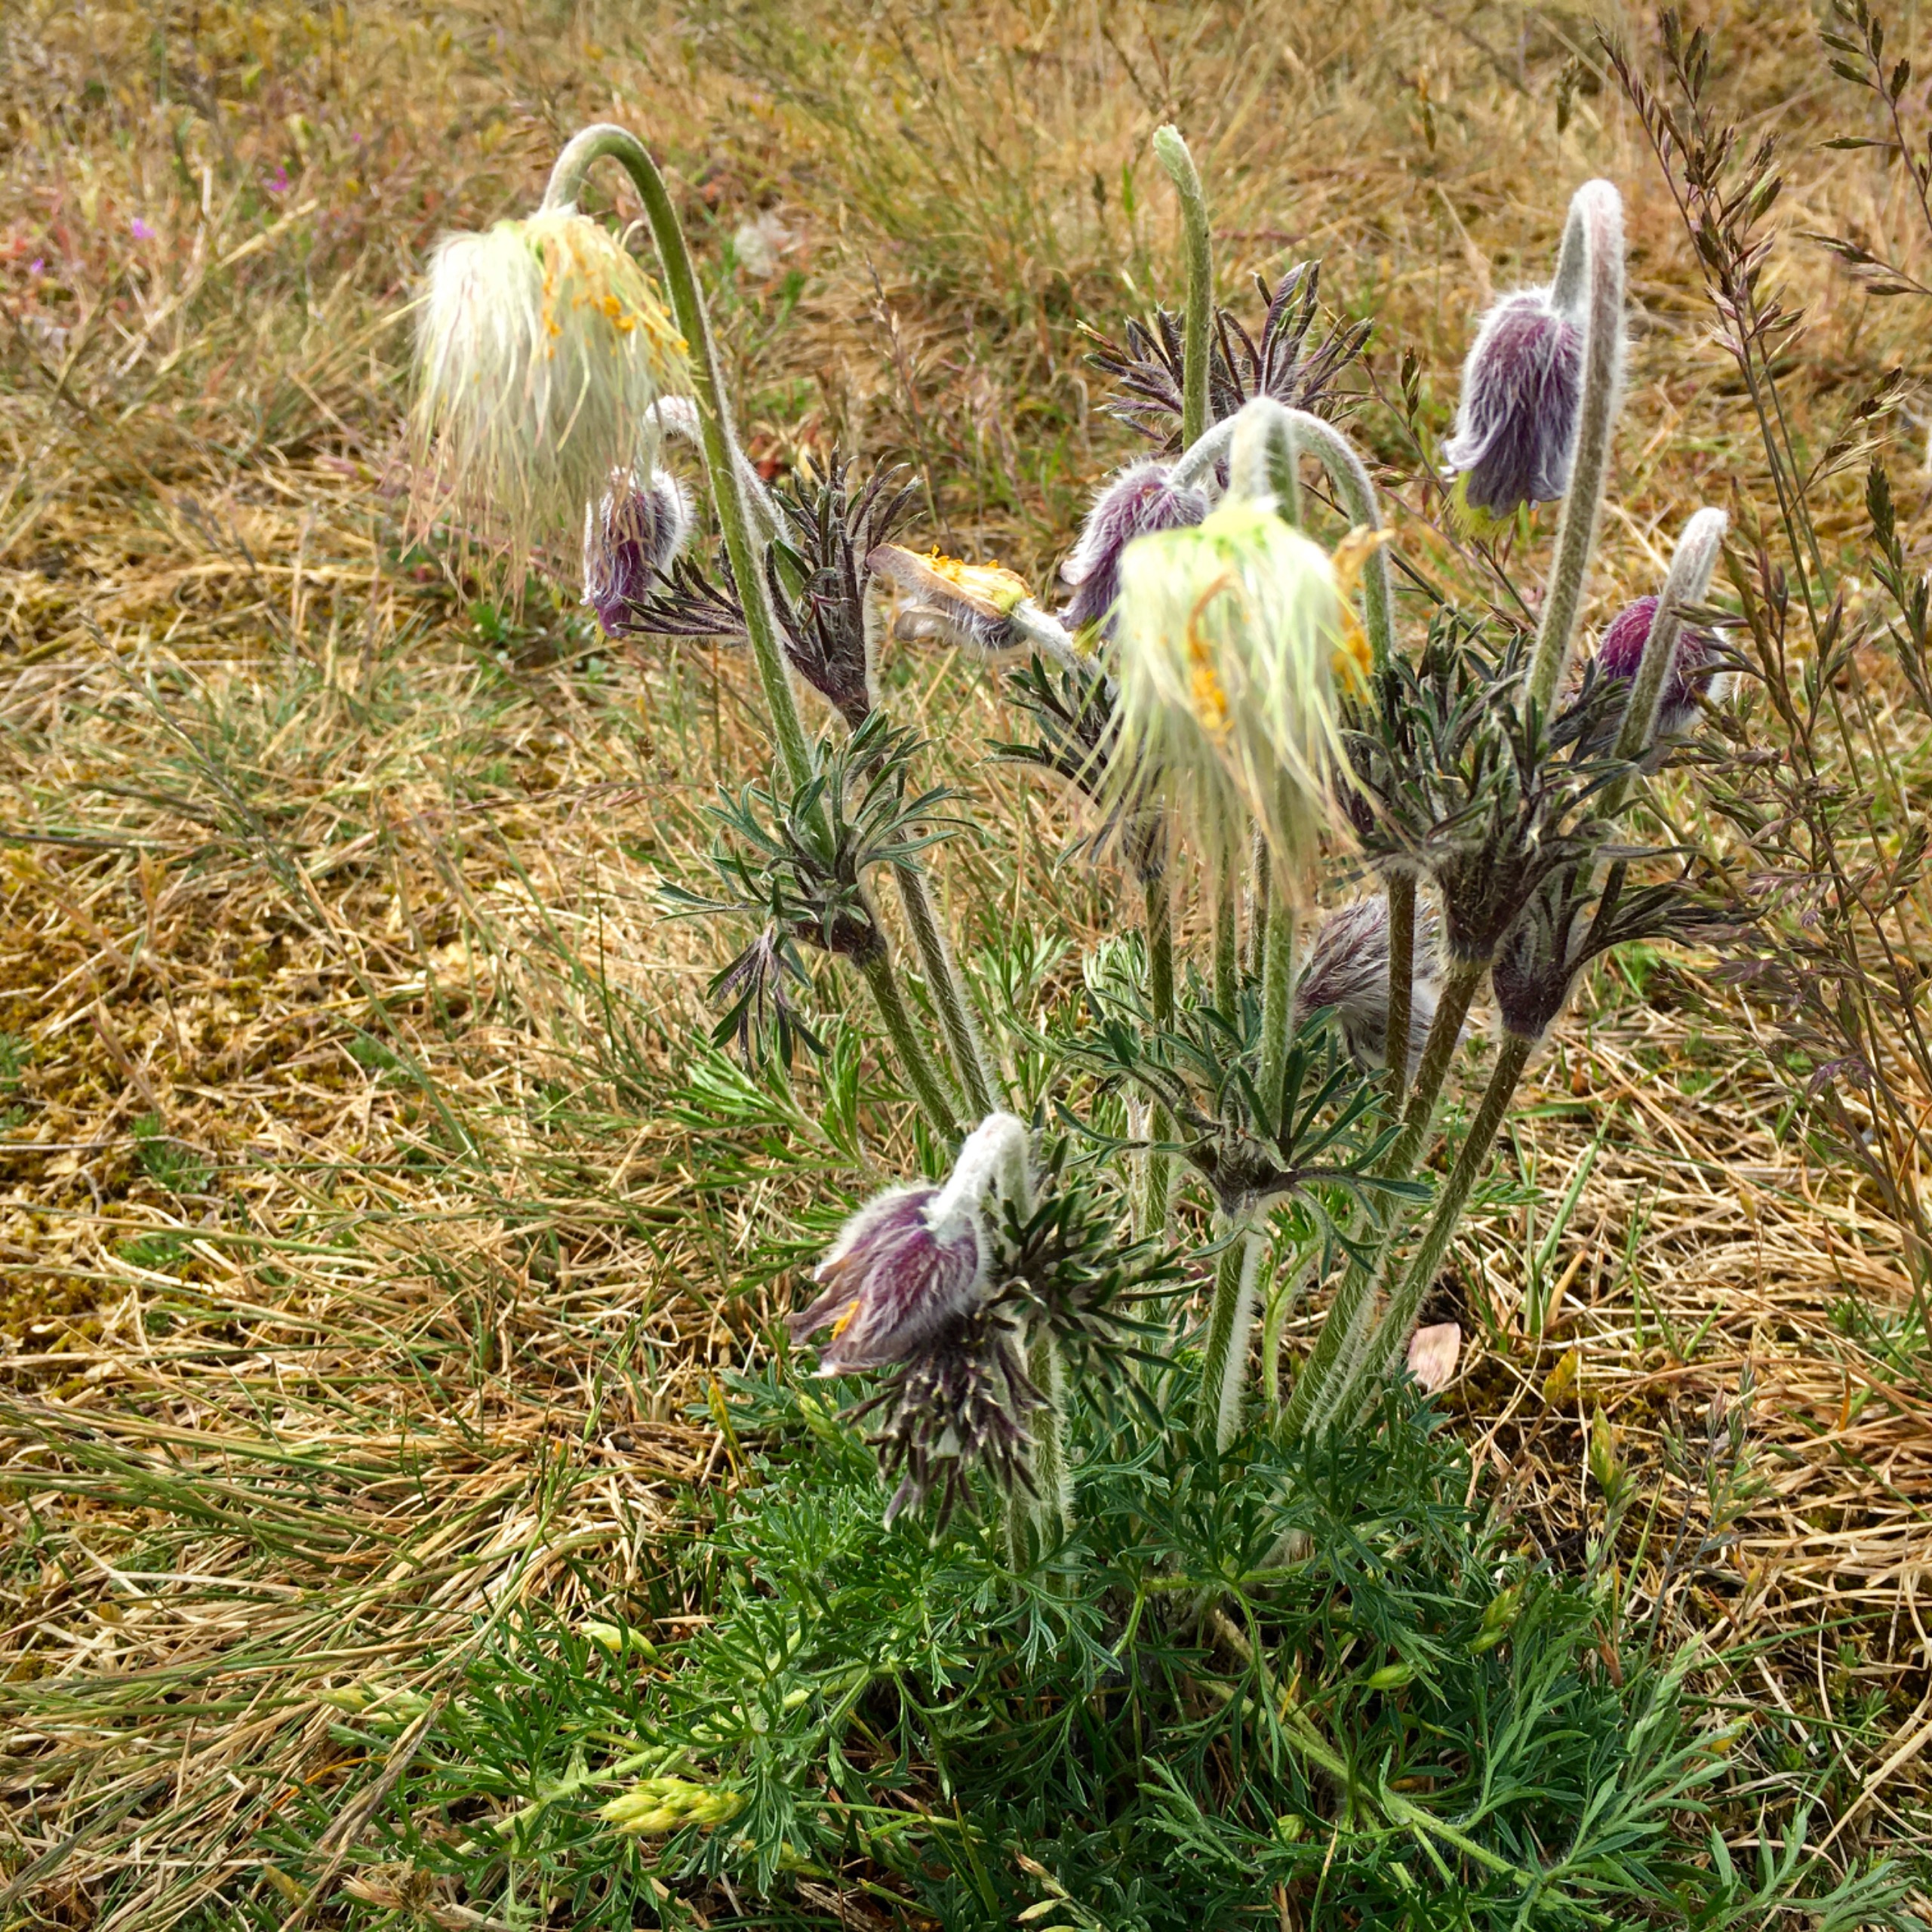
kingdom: Plantae
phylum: Tracheophyta
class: Magnoliopsida
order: Ranunculales
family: Ranunculaceae
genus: Pulsatilla
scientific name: Pulsatilla pratensis
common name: Nikkende kobjælde
